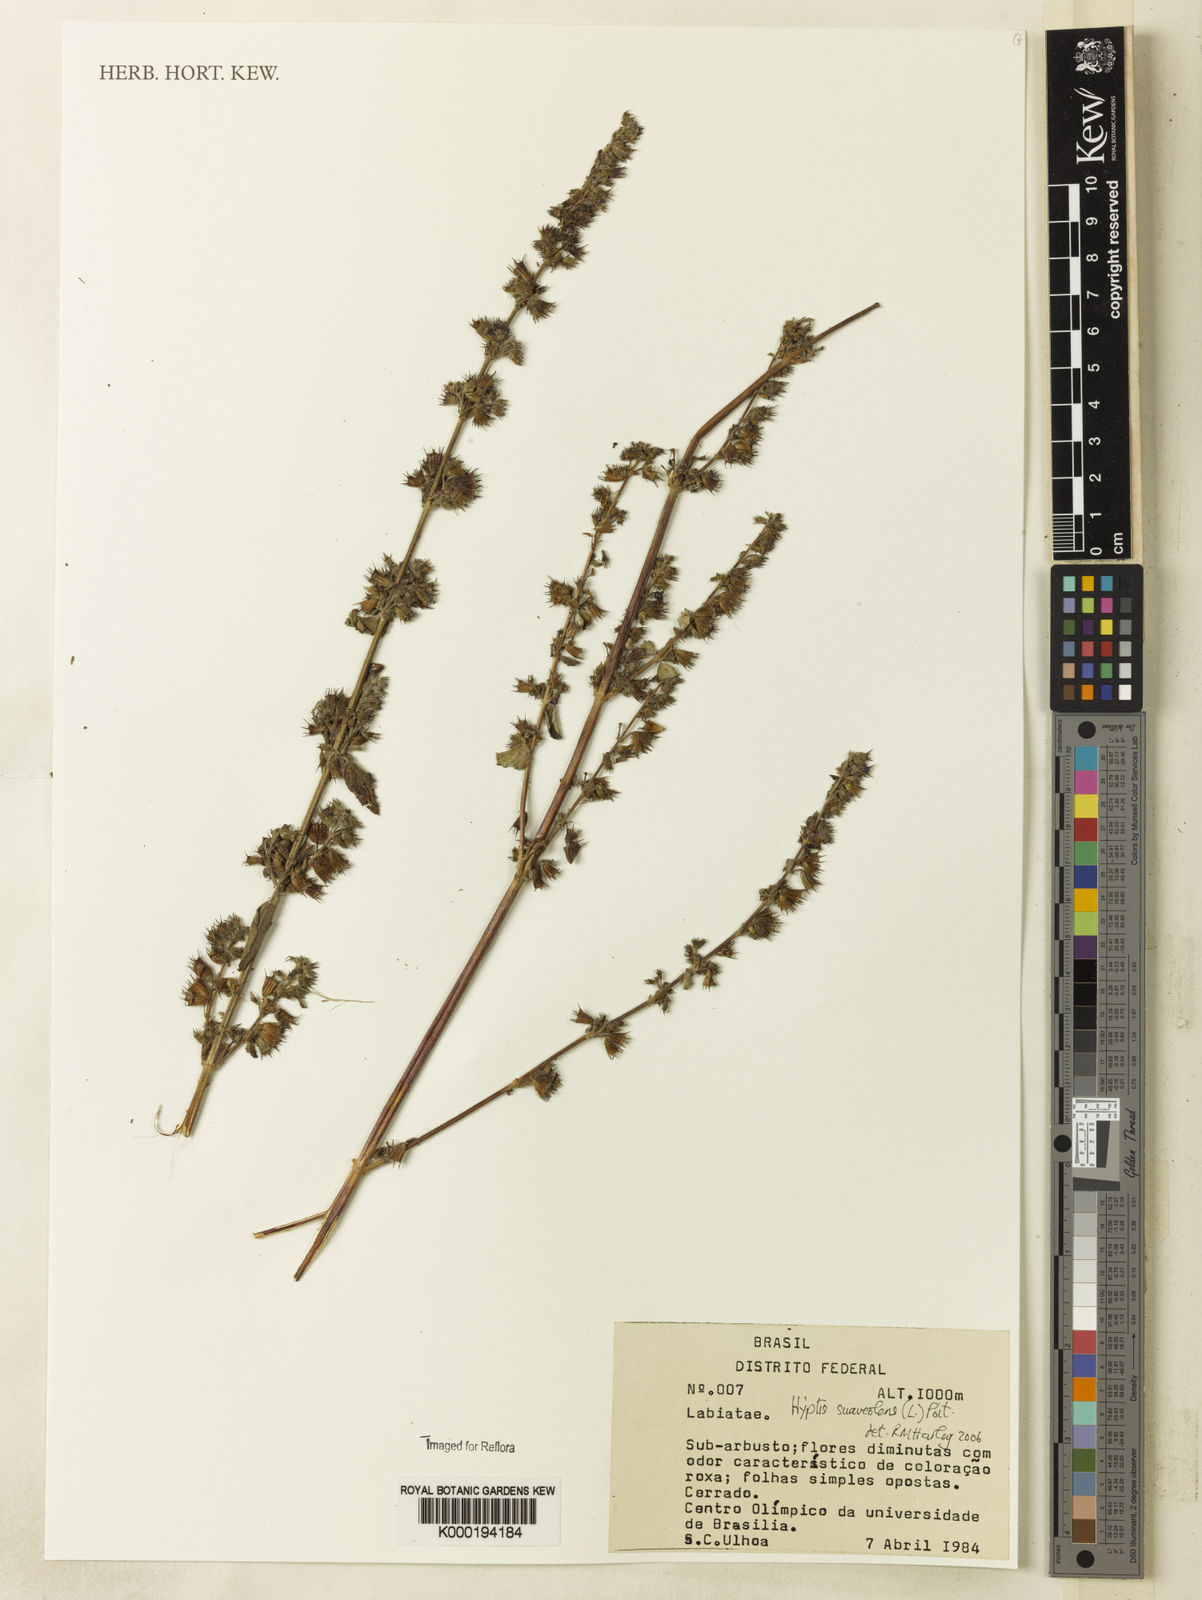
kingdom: Plantae
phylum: Tracheophyta
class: Magnoliopsida
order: Lamiales
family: Lamiaceae
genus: Mesosphaerum
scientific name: Mesosphaerum suaveolens
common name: Pignut
